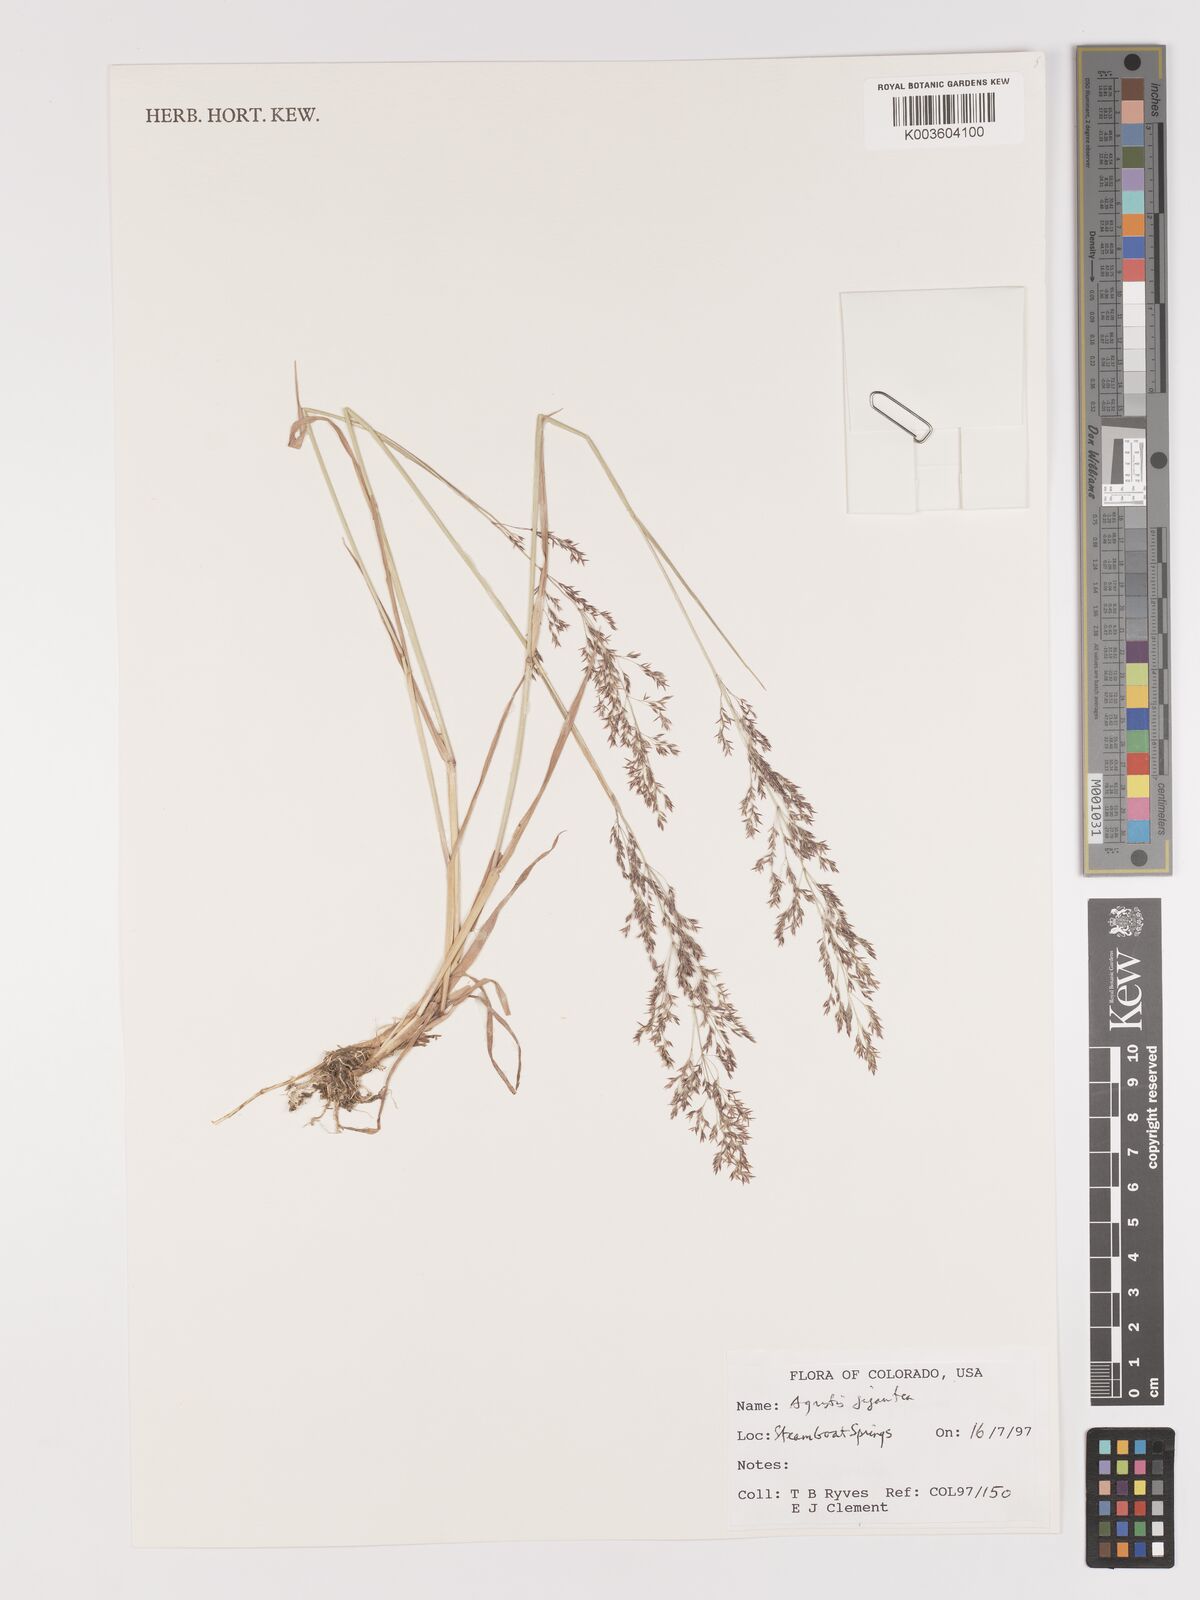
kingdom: Plantae
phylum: Tracheophyta
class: Liliopsida
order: Poales
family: Poaceae
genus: Agrostis
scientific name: Agrostis gigantea
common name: Black bent
